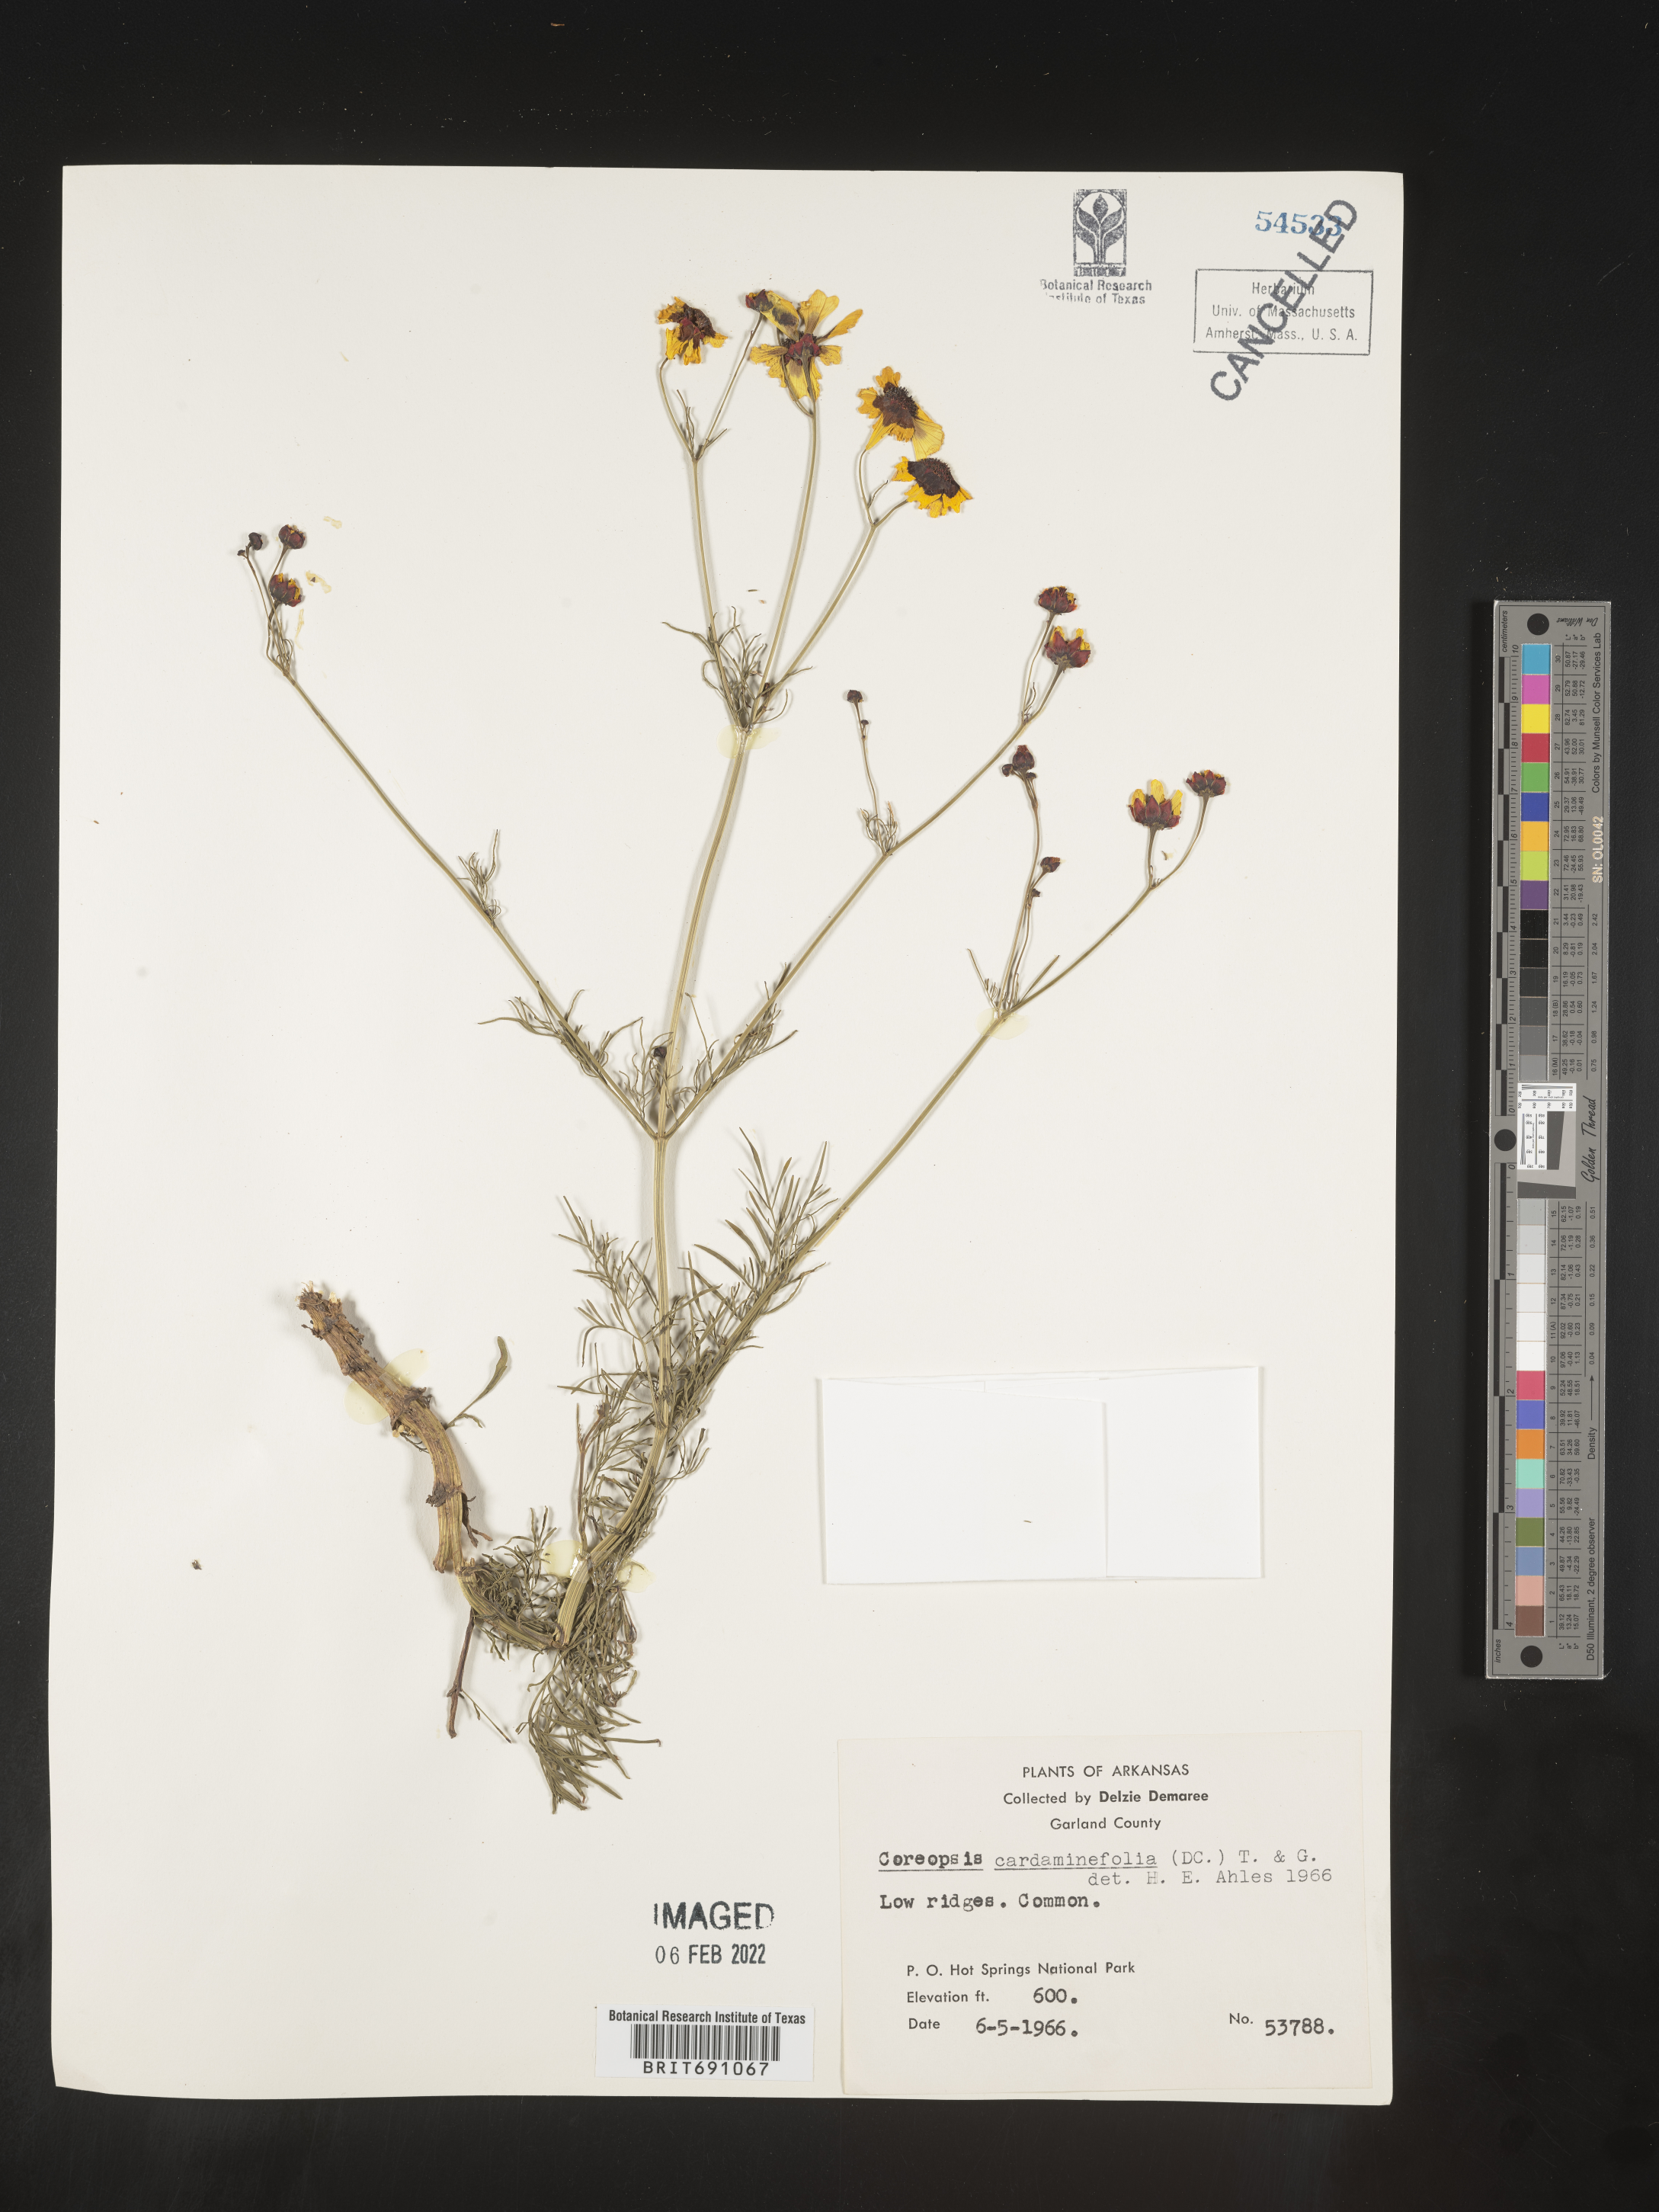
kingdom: Plantae
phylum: Tracheophyta
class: Magnoliopsida
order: Asterales
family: Asteraceae
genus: Coreopsis
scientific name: Coreopsis
